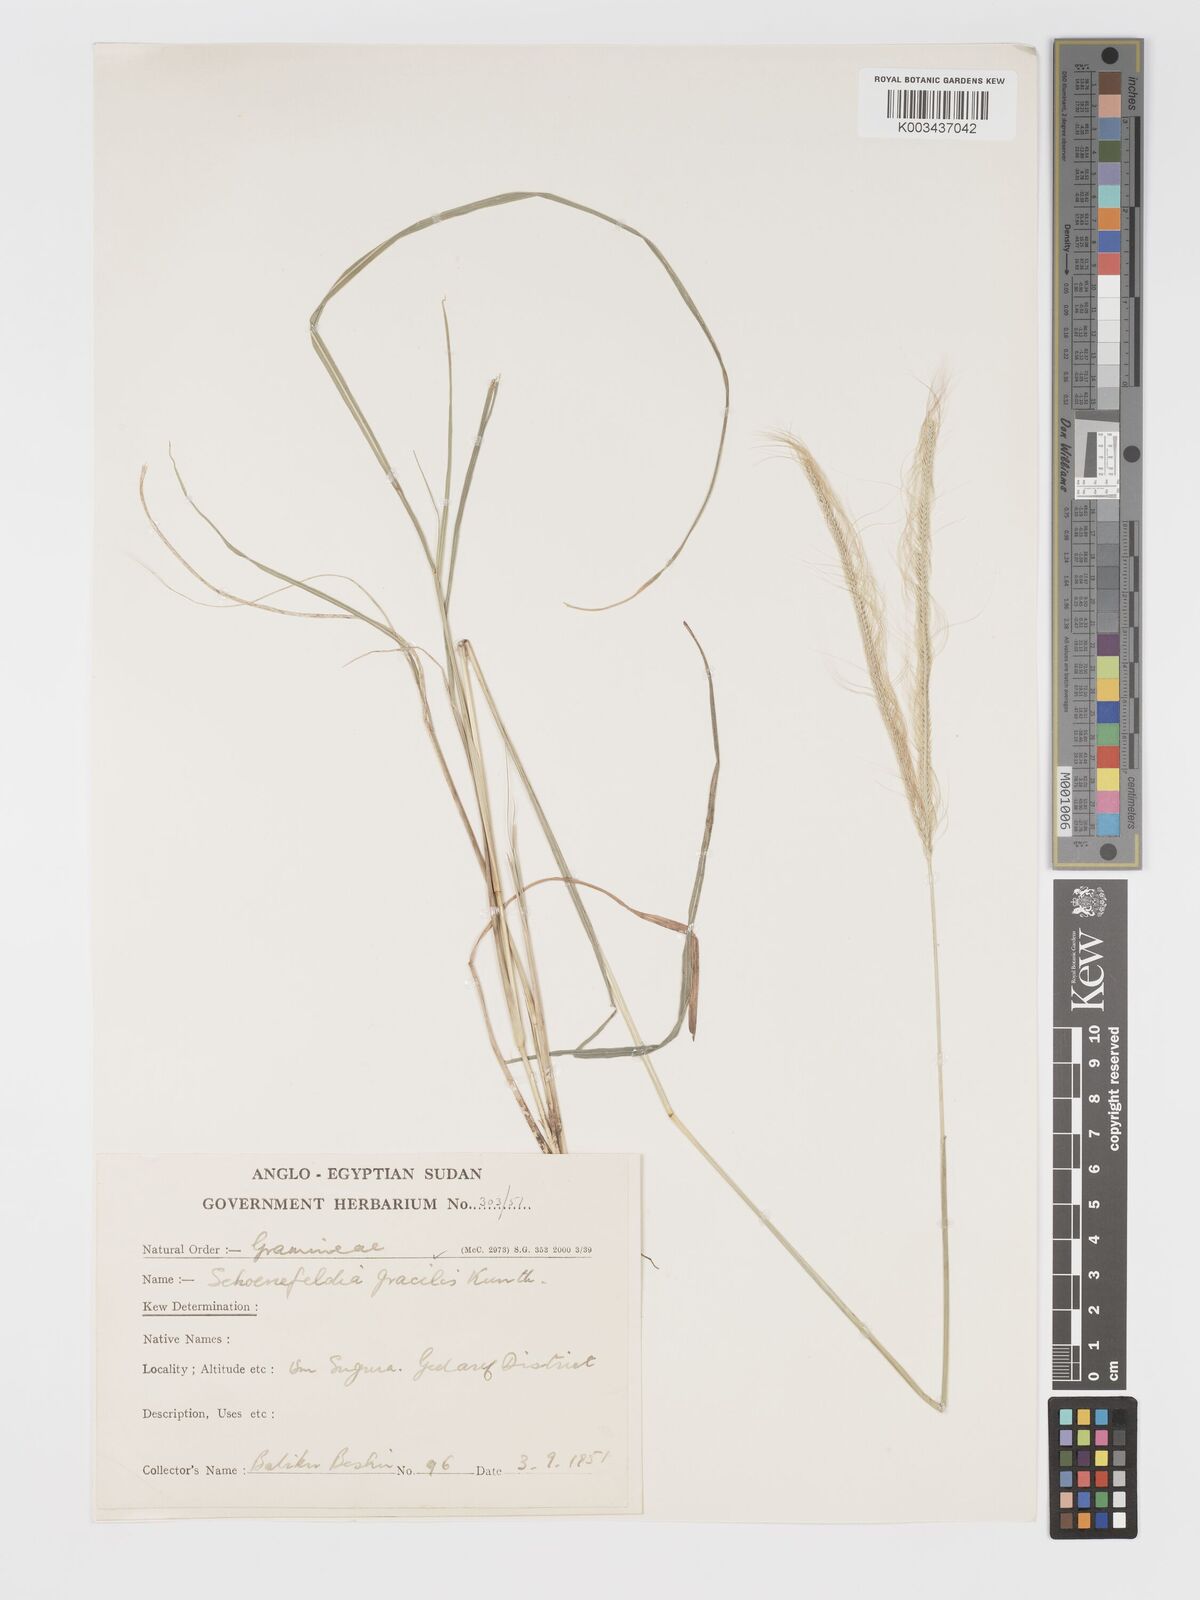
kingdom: Plantae
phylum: Tracheophyta
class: Liliopsida
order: Poales
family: Poaceae
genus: Schoenefeldia
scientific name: Schoenefeldia gracilis
